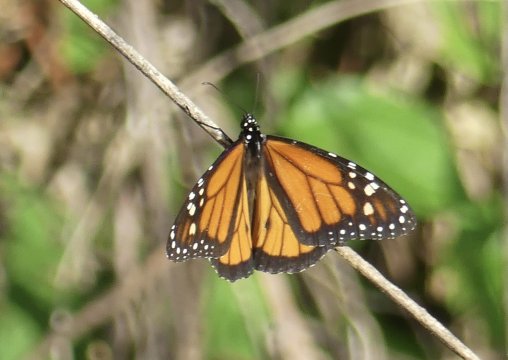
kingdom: Animalia
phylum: Arthropoda
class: Insecta
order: Lepidoptera
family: Nymphalidae
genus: Danaus
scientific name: Danaus plexippus
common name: Monarch
